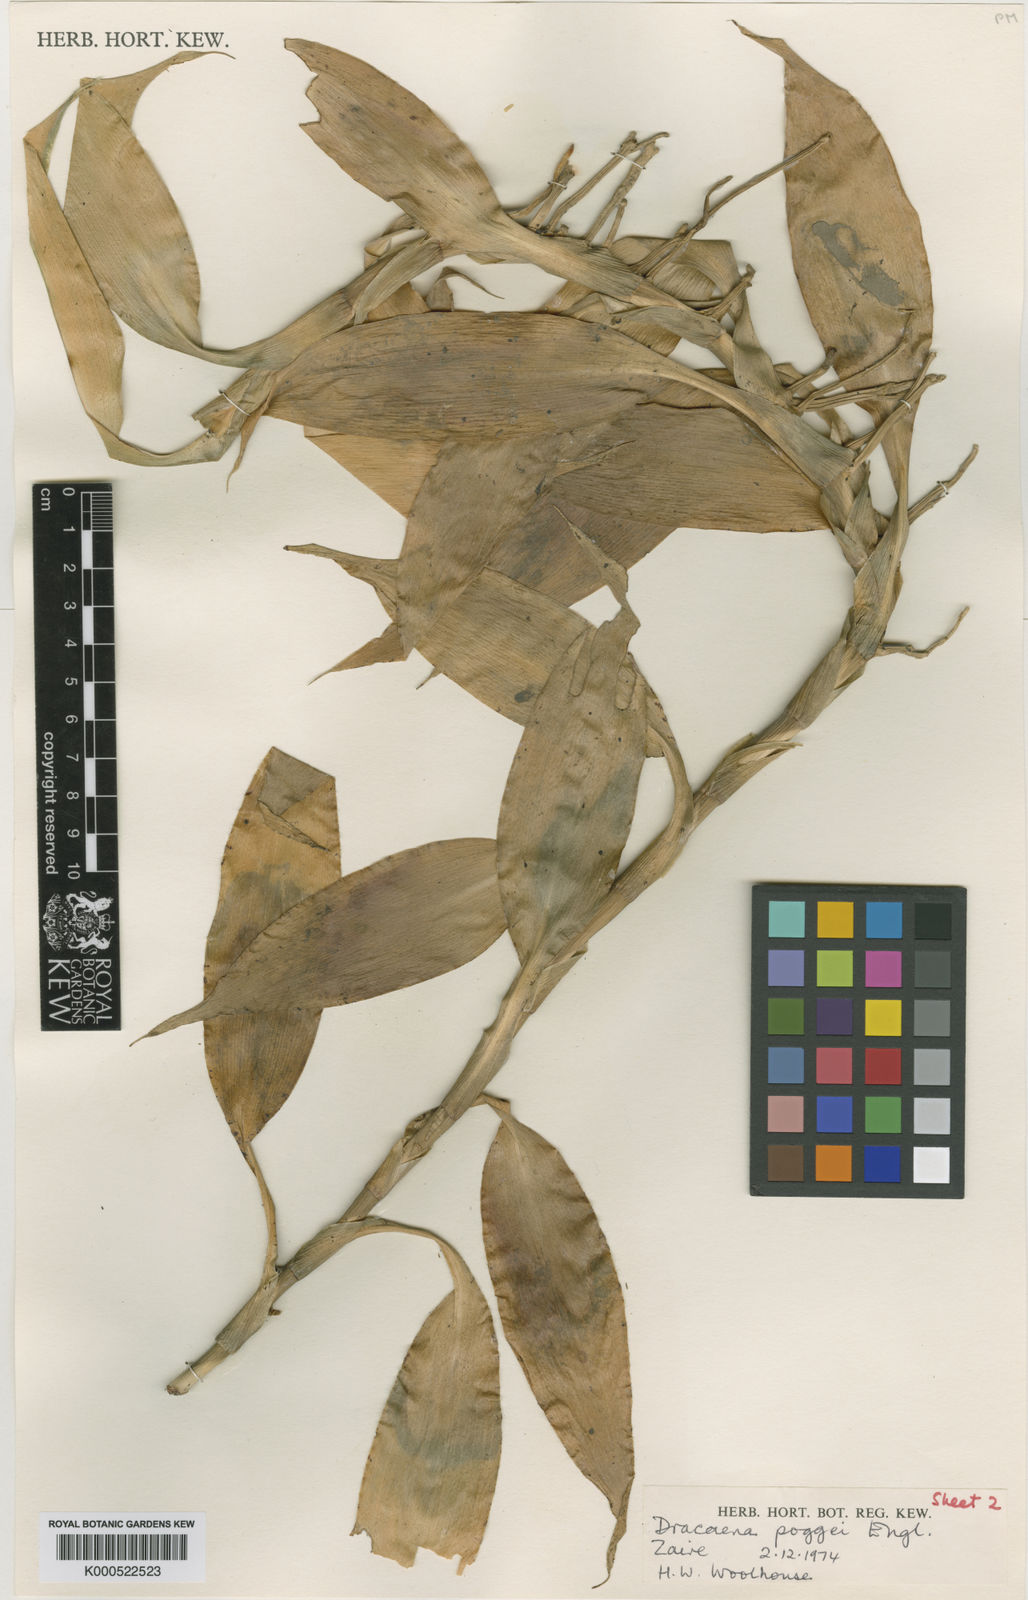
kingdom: Plantae
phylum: Tracheophyta
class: Liliopsida
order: Asparagales
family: Asparagaceae
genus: Dracaena
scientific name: Dracaena sanderiana
